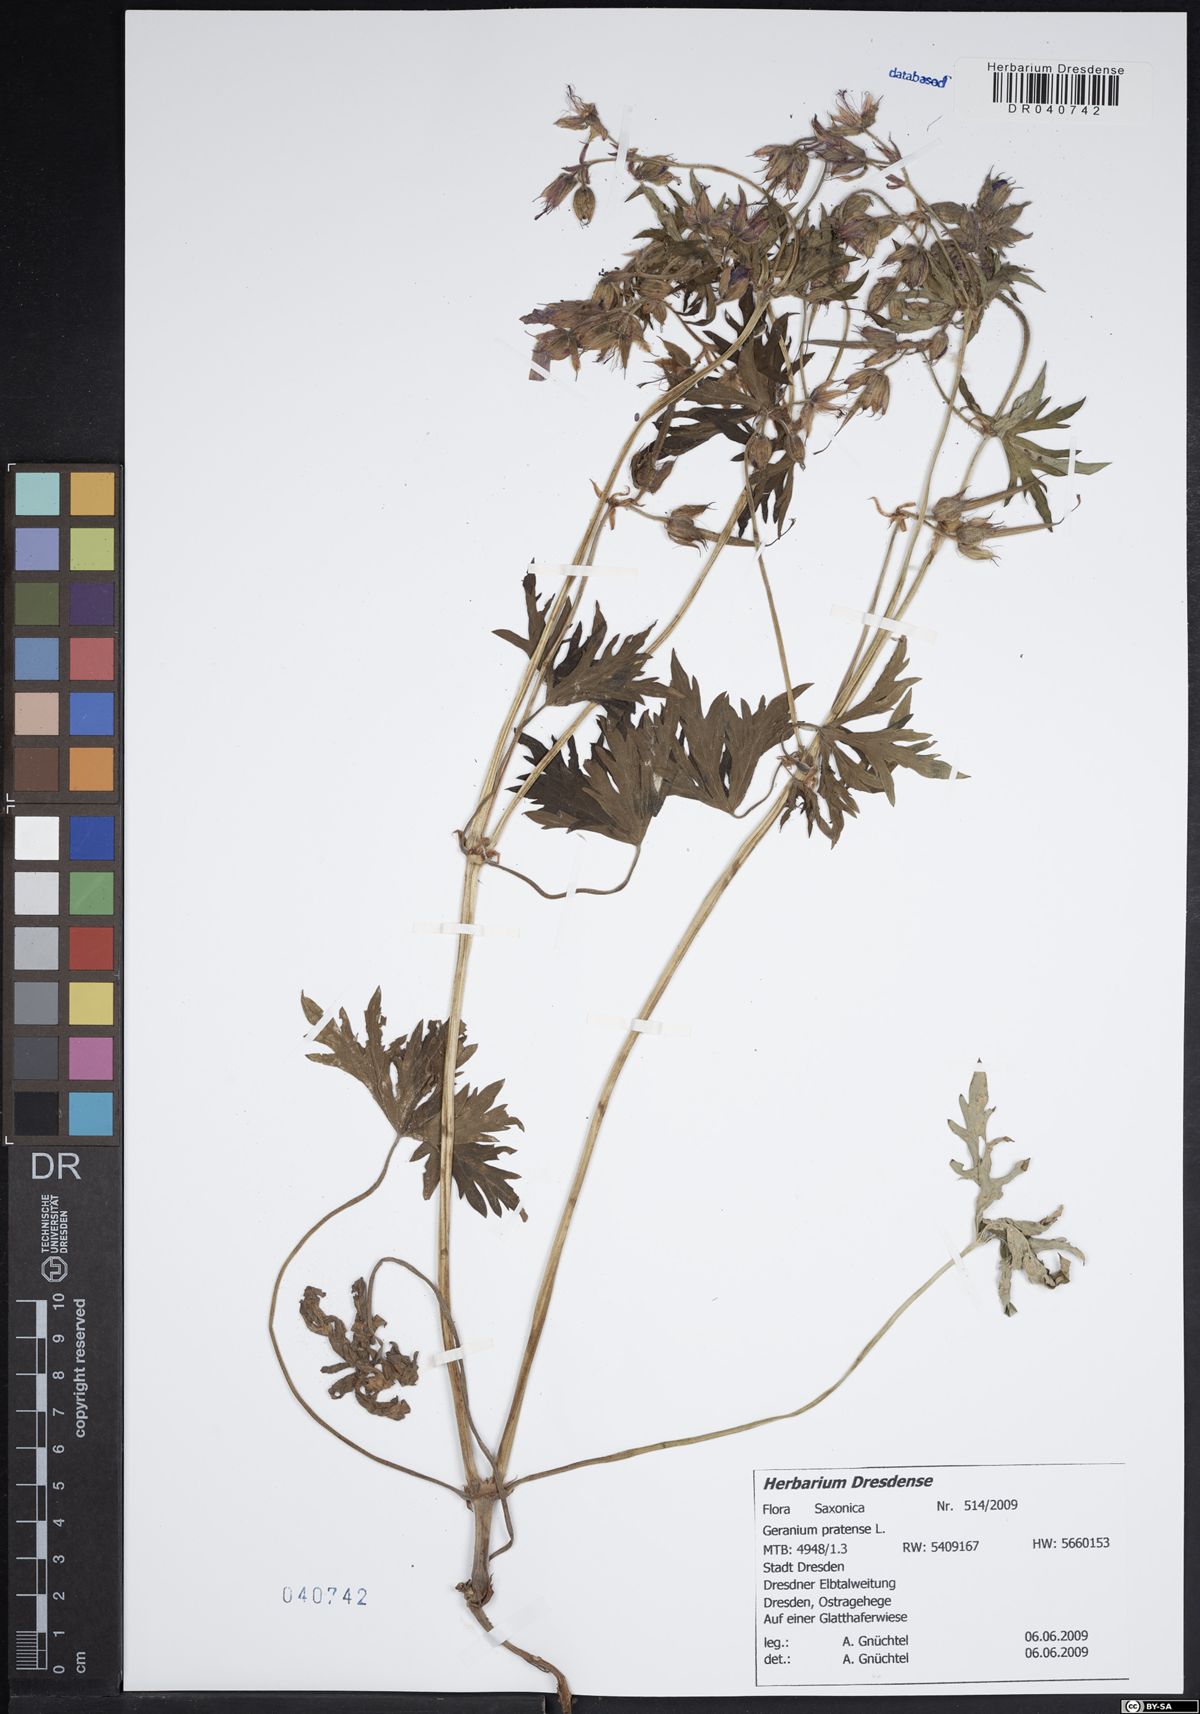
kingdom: Plantae
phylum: Tracheophyta
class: Magnoliopsida
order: Geraniales
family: Geraniaceae
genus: Geranium
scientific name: Geranium pratense
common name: Meadow crane's-bill
